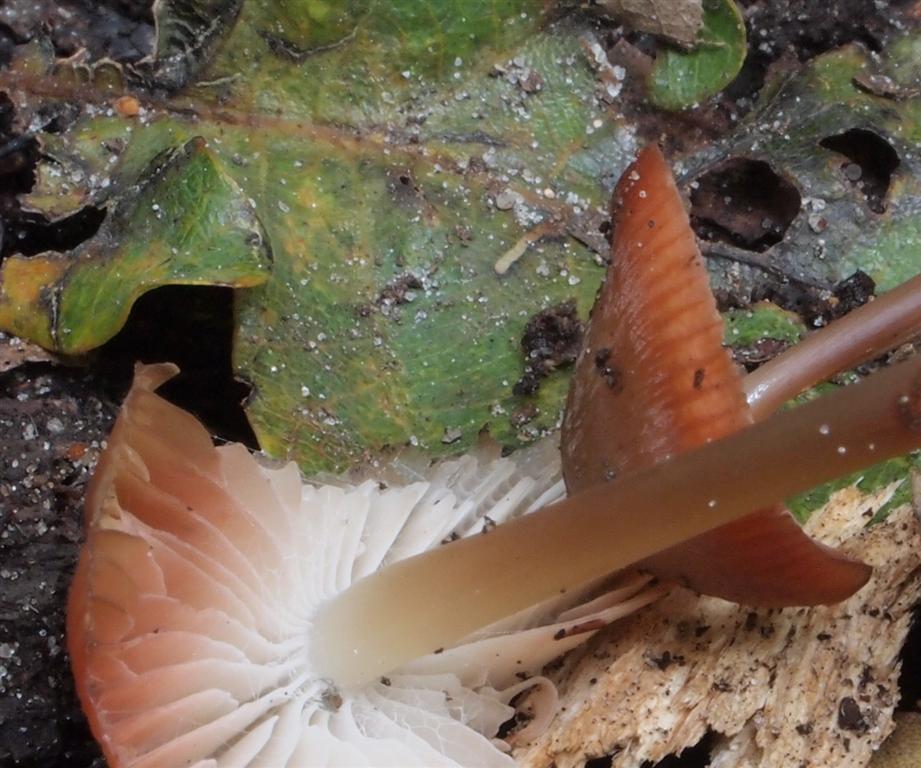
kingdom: Fungi
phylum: Basidiomycota
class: Agaricomycetes
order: Agaricales
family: Mycenaceae
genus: Mycena
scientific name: Mycena galericulata
